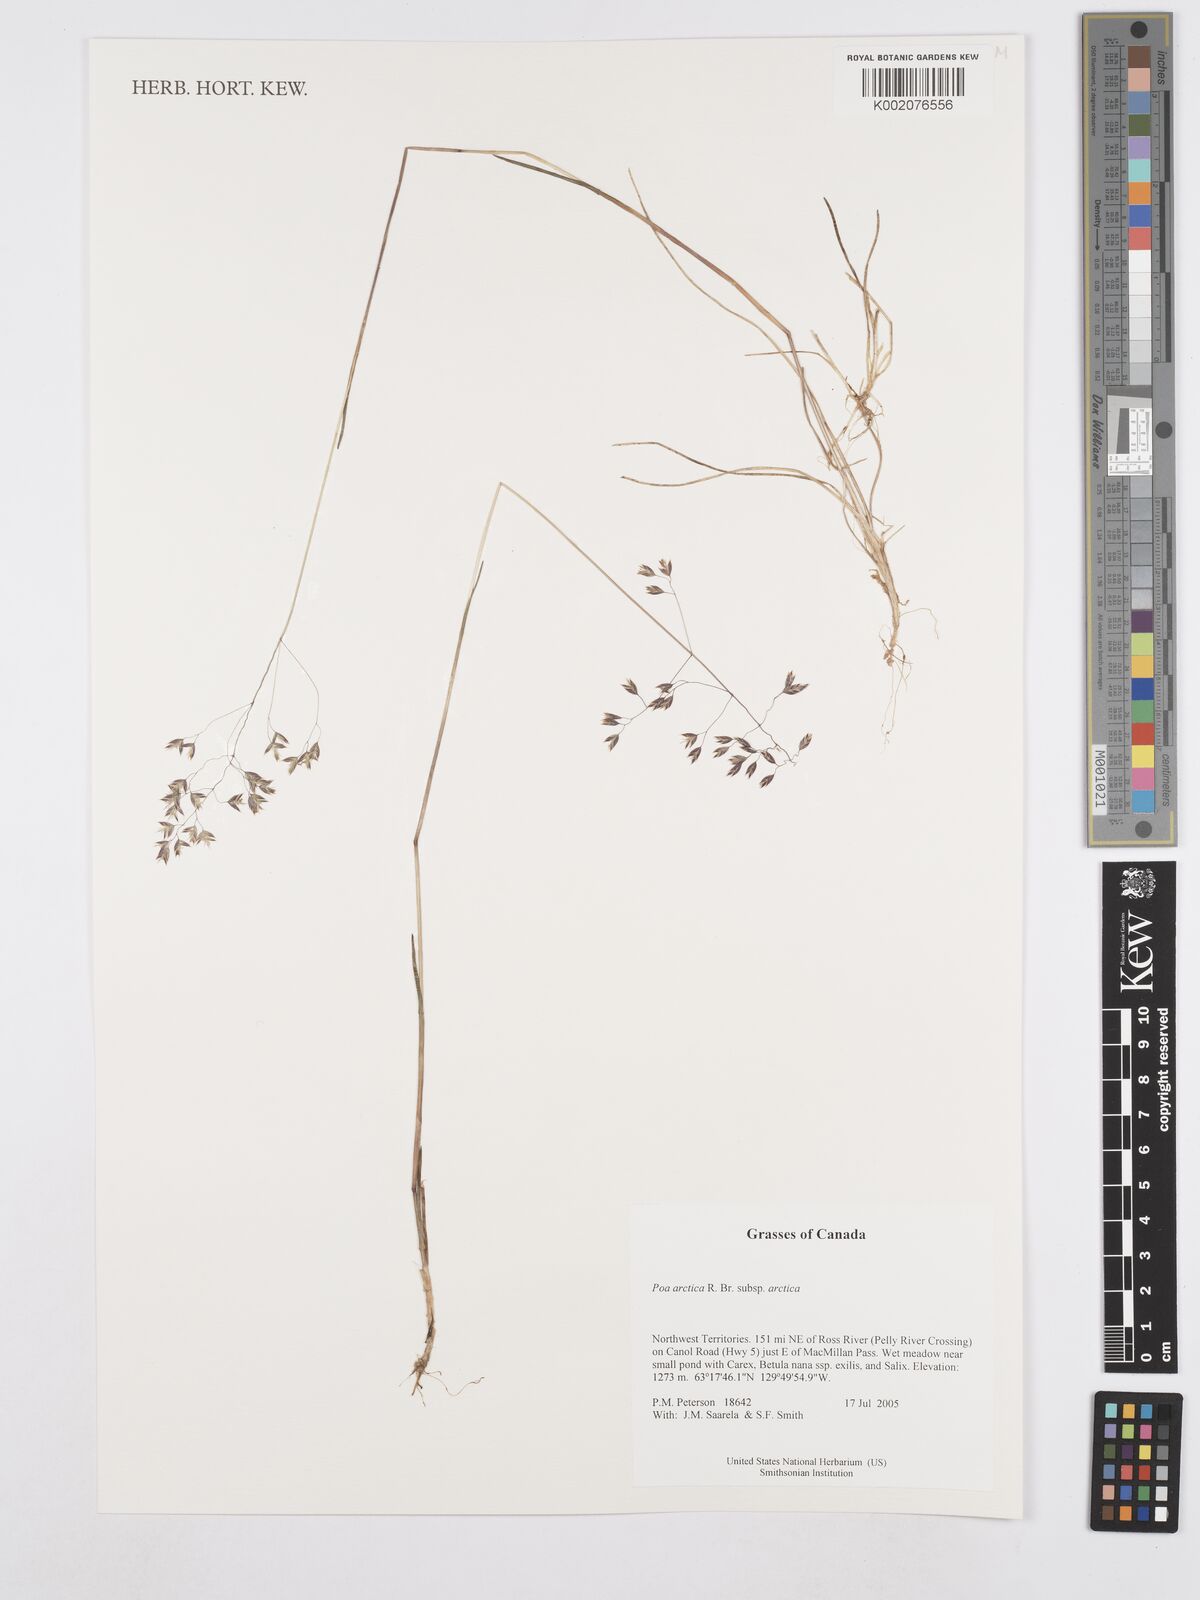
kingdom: Plantae
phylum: Tracheophyta
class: Liliopsida
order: Poales
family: Poaceae
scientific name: Poaceae
